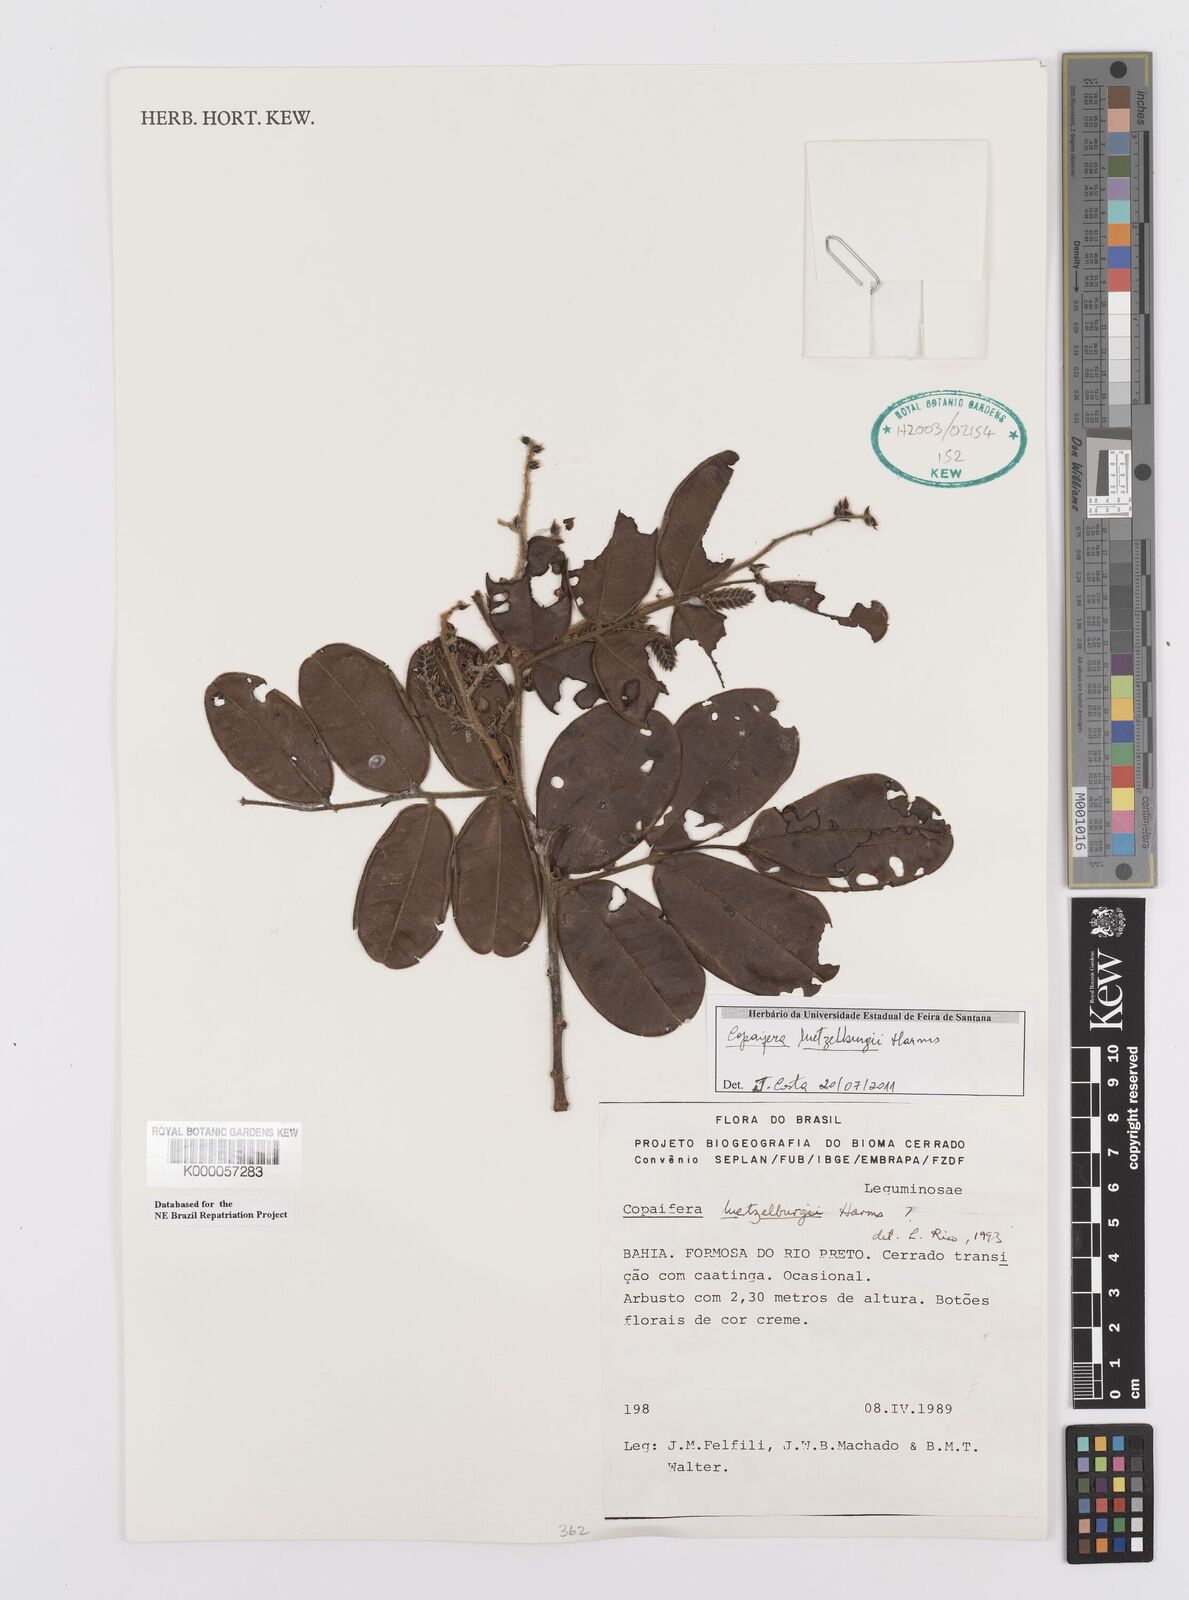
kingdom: Plantae
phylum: Tracheophyta
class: Magnoliopsida
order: Fabales
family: Fabaceae
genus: Copaifera
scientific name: Copaifera luetzelburgii
